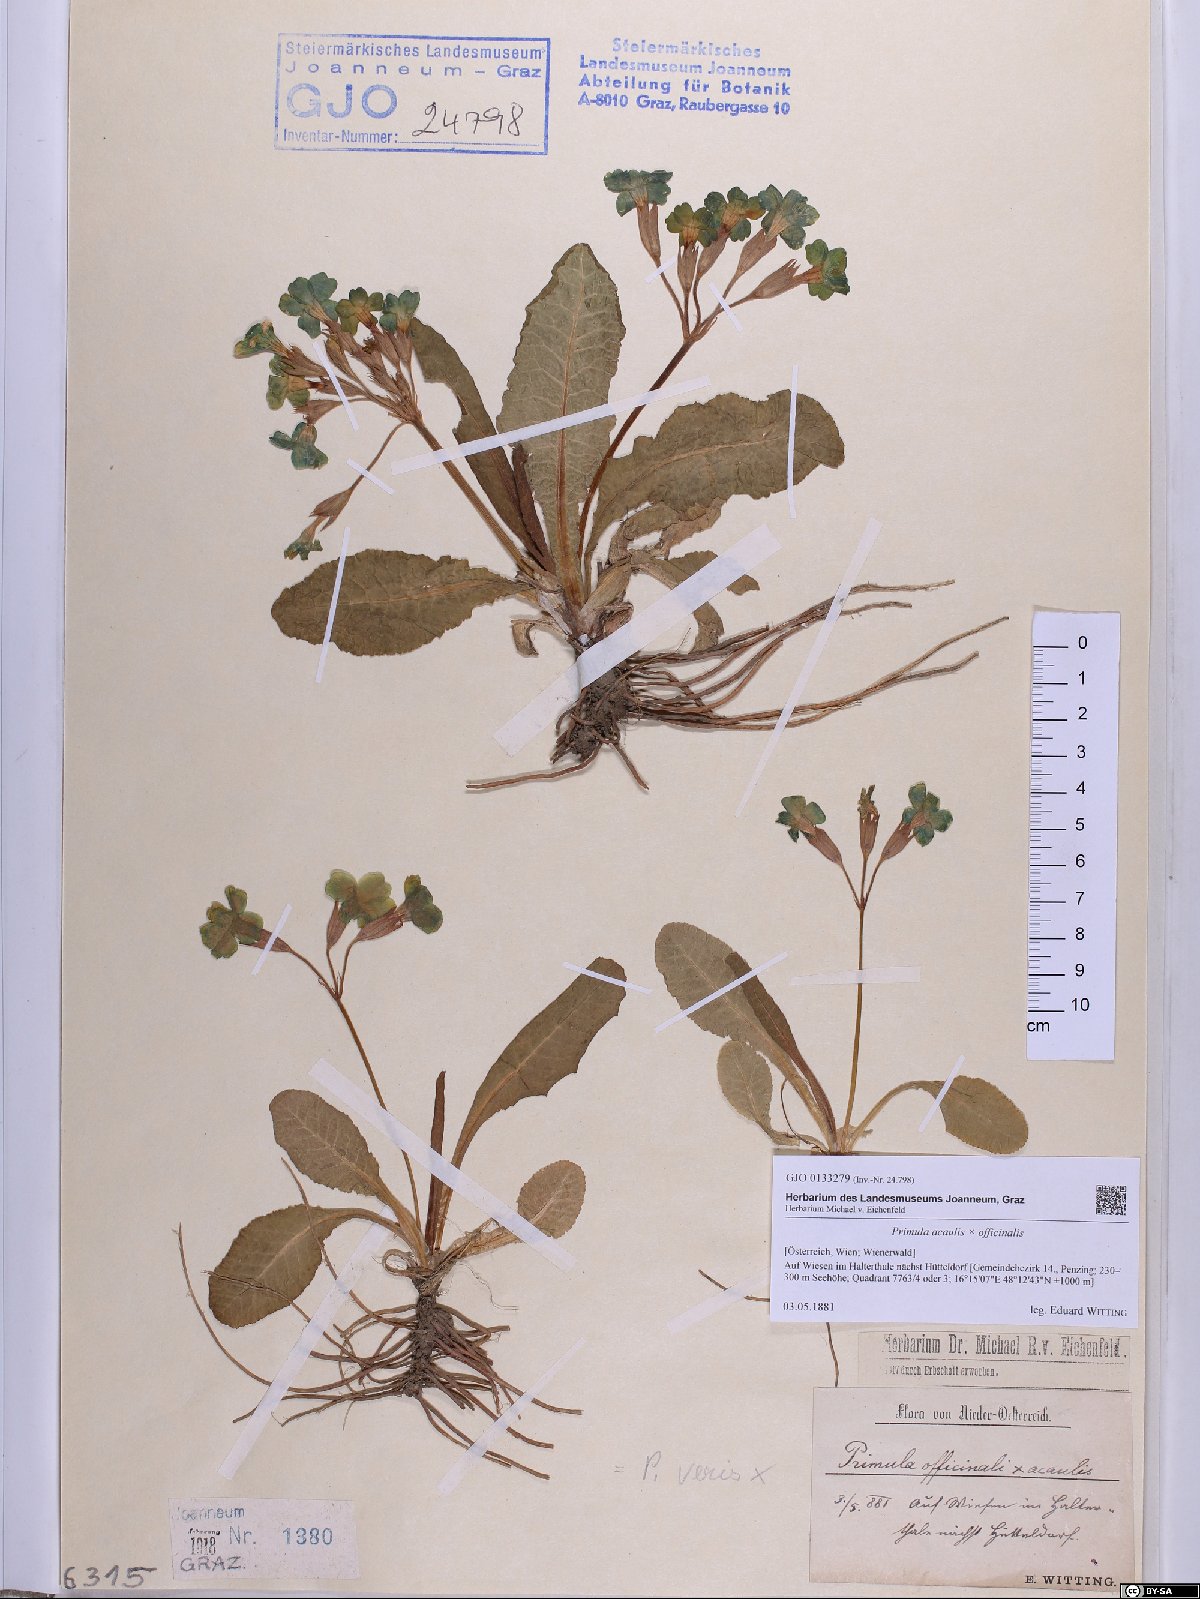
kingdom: Plantae
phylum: Tracheophyta
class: Magnoliopsida
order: Ericales
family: Primulaceae
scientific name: Primulaceae
